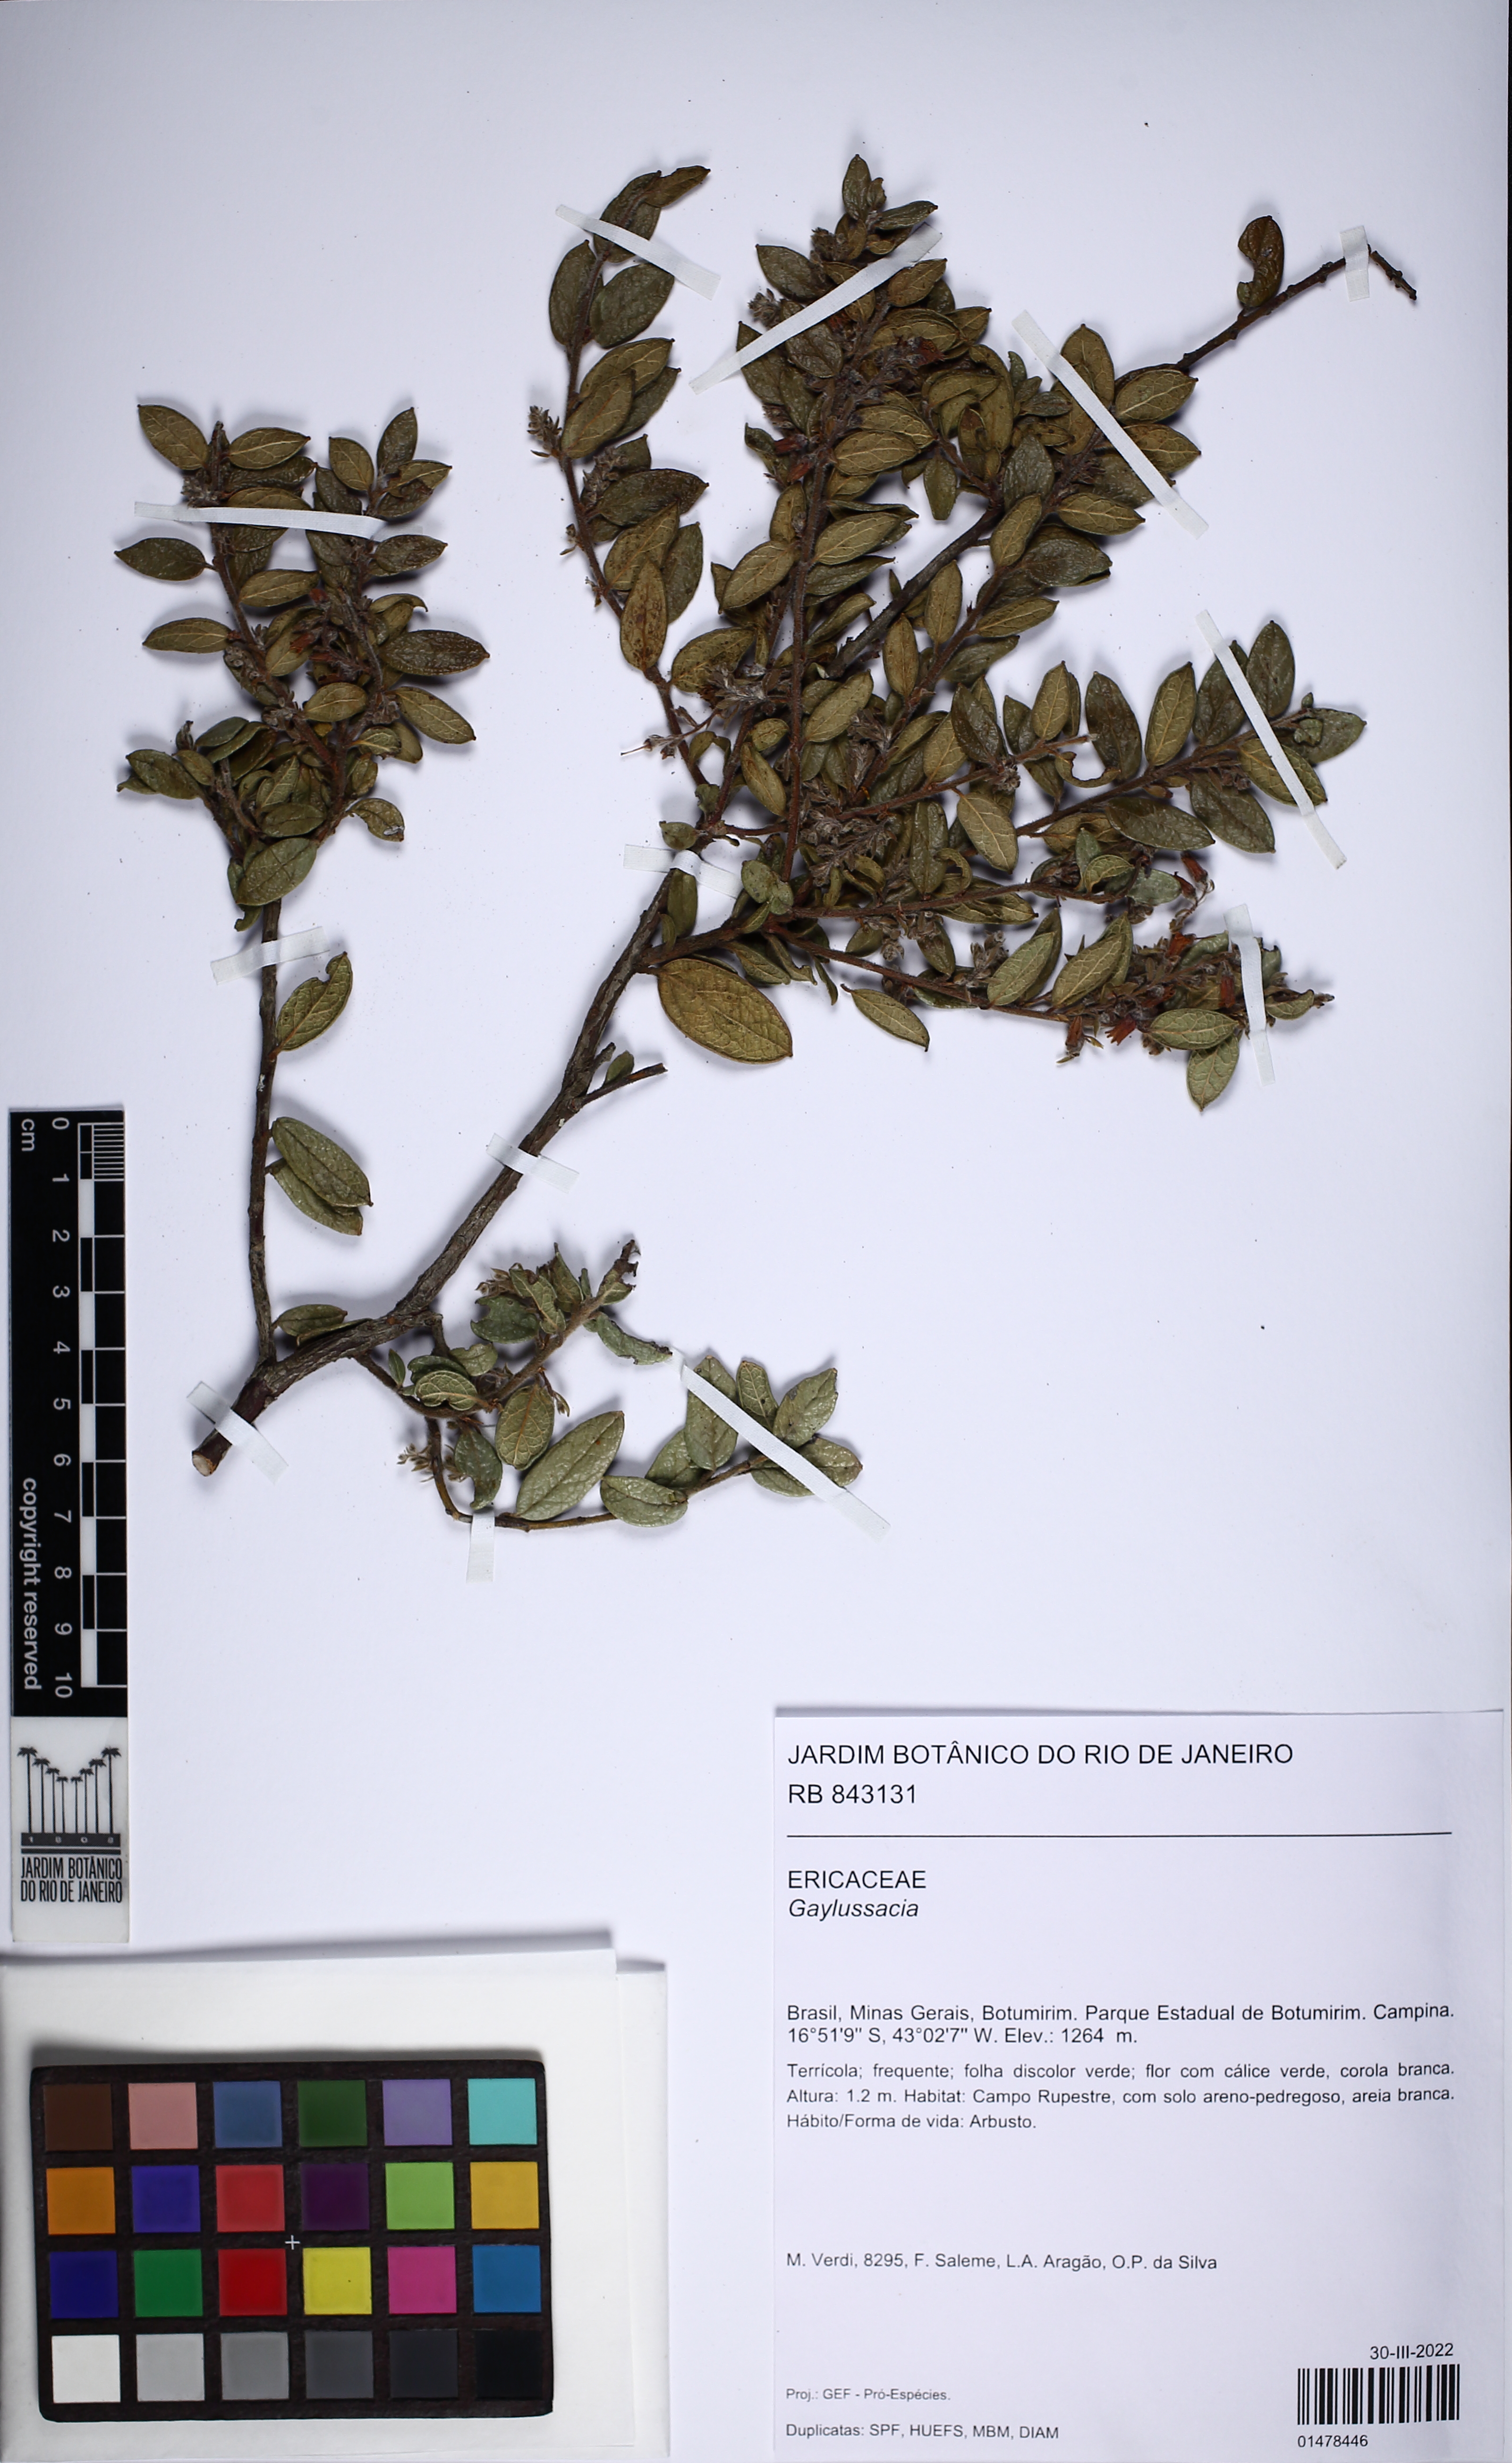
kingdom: Plantae
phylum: Tracheophyta
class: Magnoliopsida
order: Ericales
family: Ericaceae
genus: Gaylussacia
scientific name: Gaylussacia
